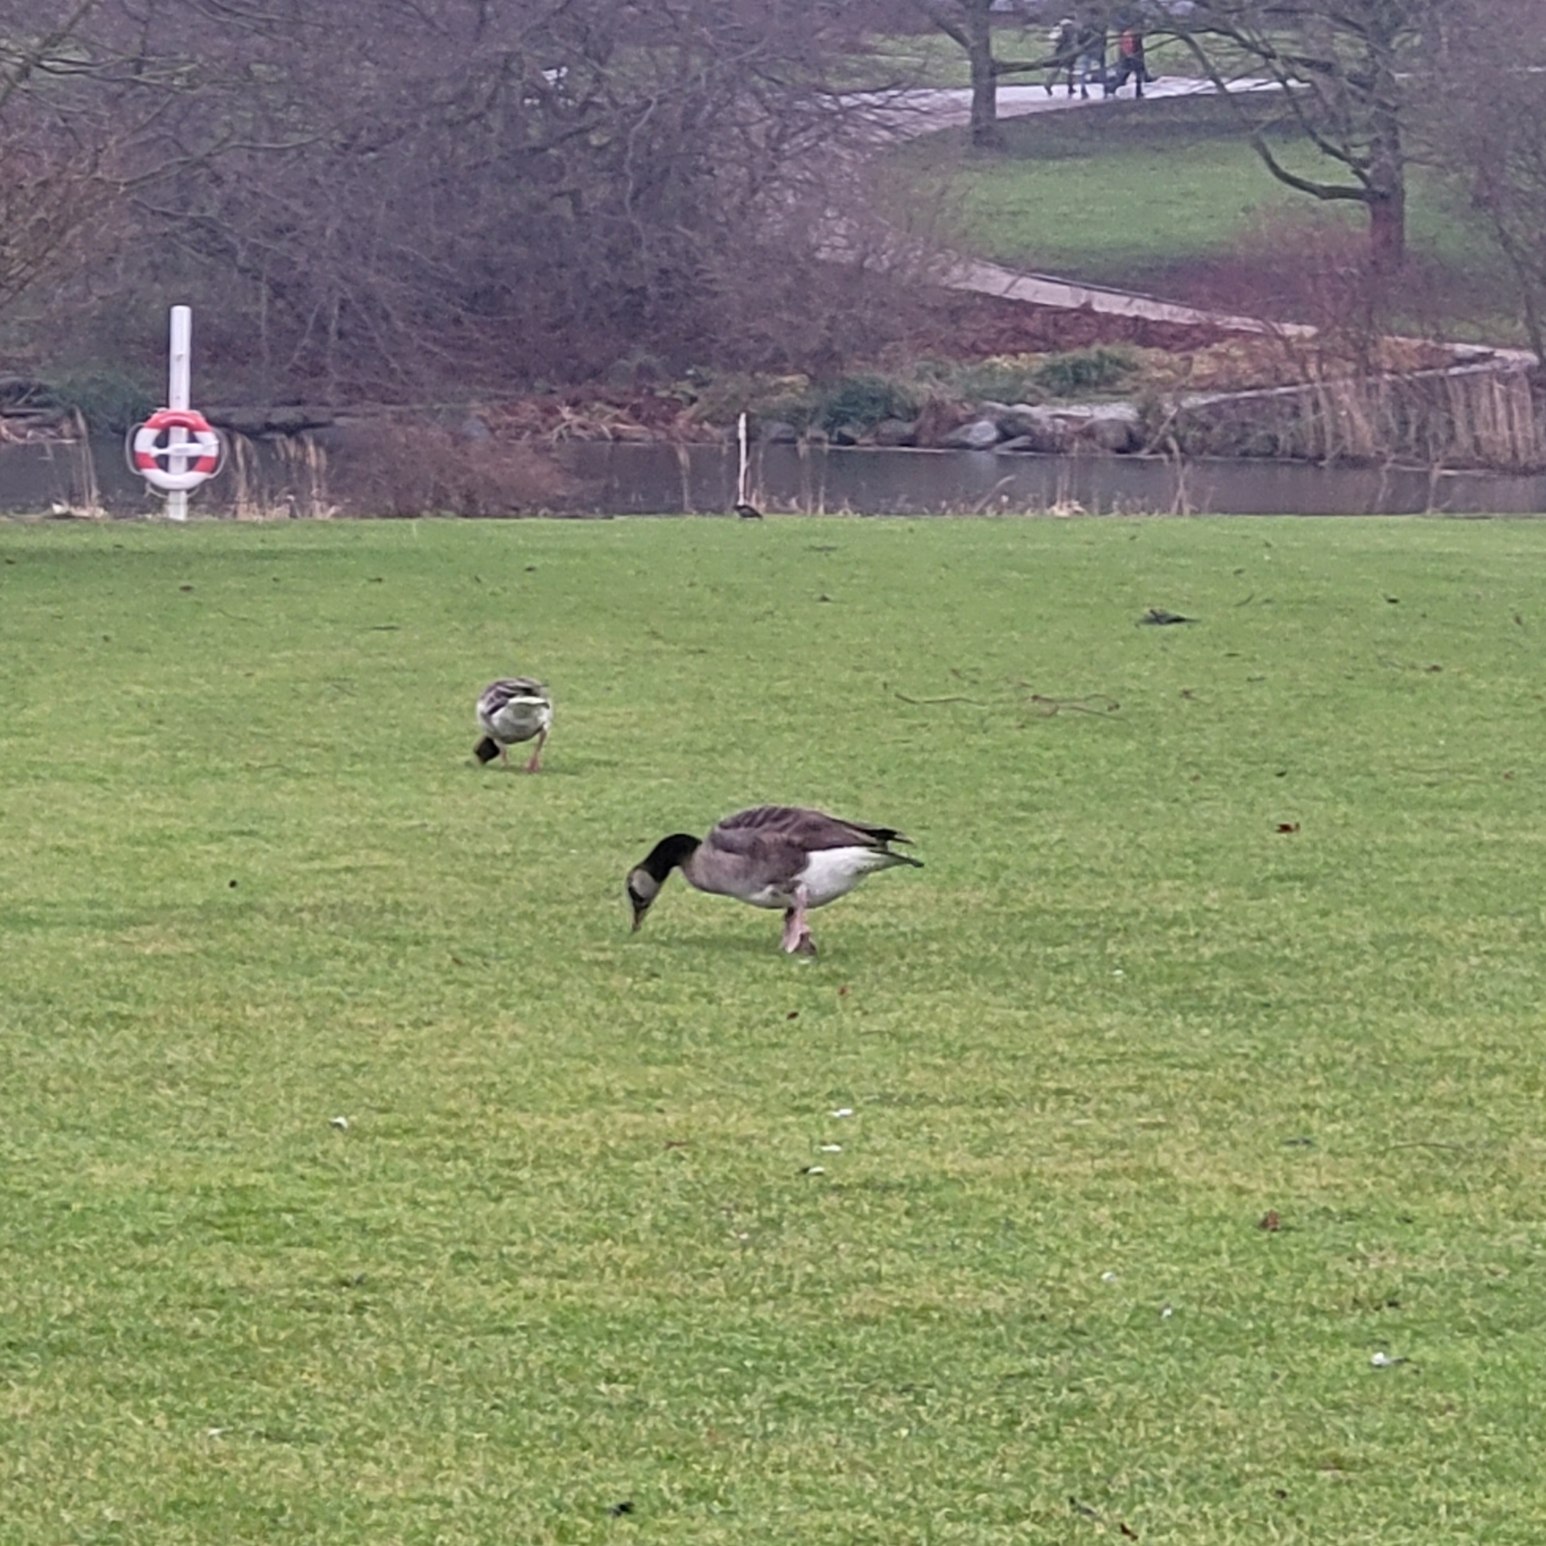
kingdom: Animalia
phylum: Chordata
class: Aves
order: Anseriformes
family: Anatidae
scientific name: Anatidae
